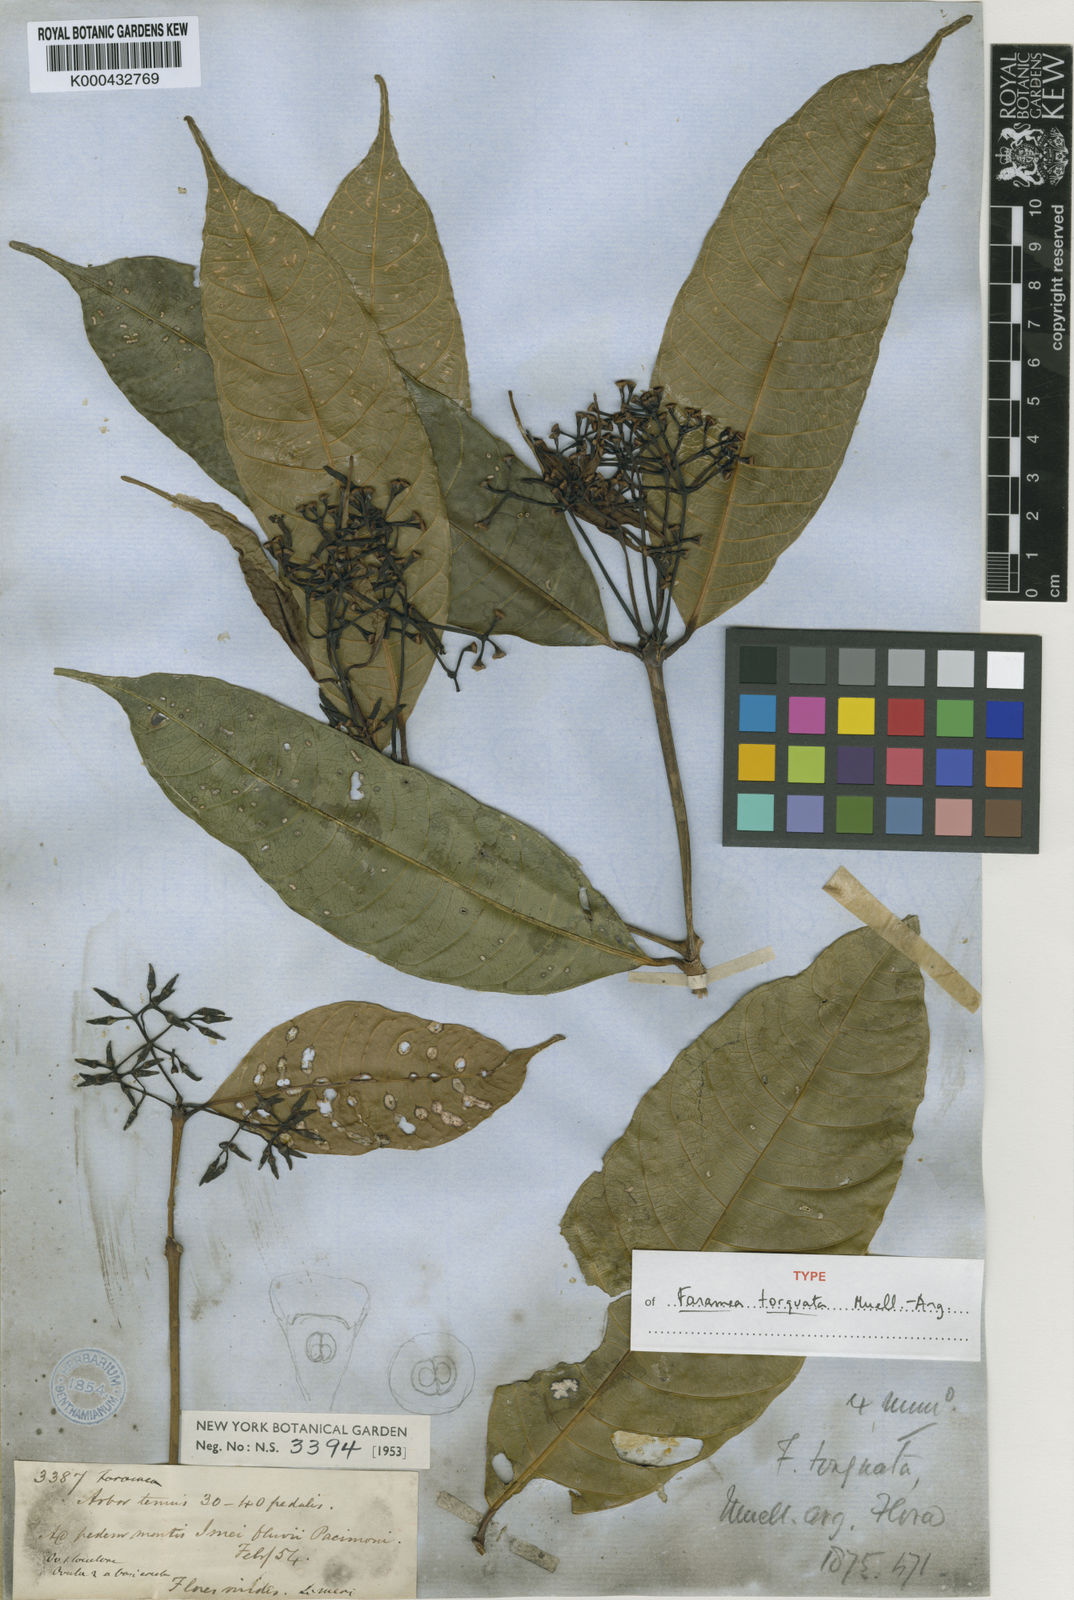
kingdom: Plantae
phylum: Tracheophyta
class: Magnoliopsida
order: Gentianales
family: Rubiaceae
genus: Faramea
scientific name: Faramea
